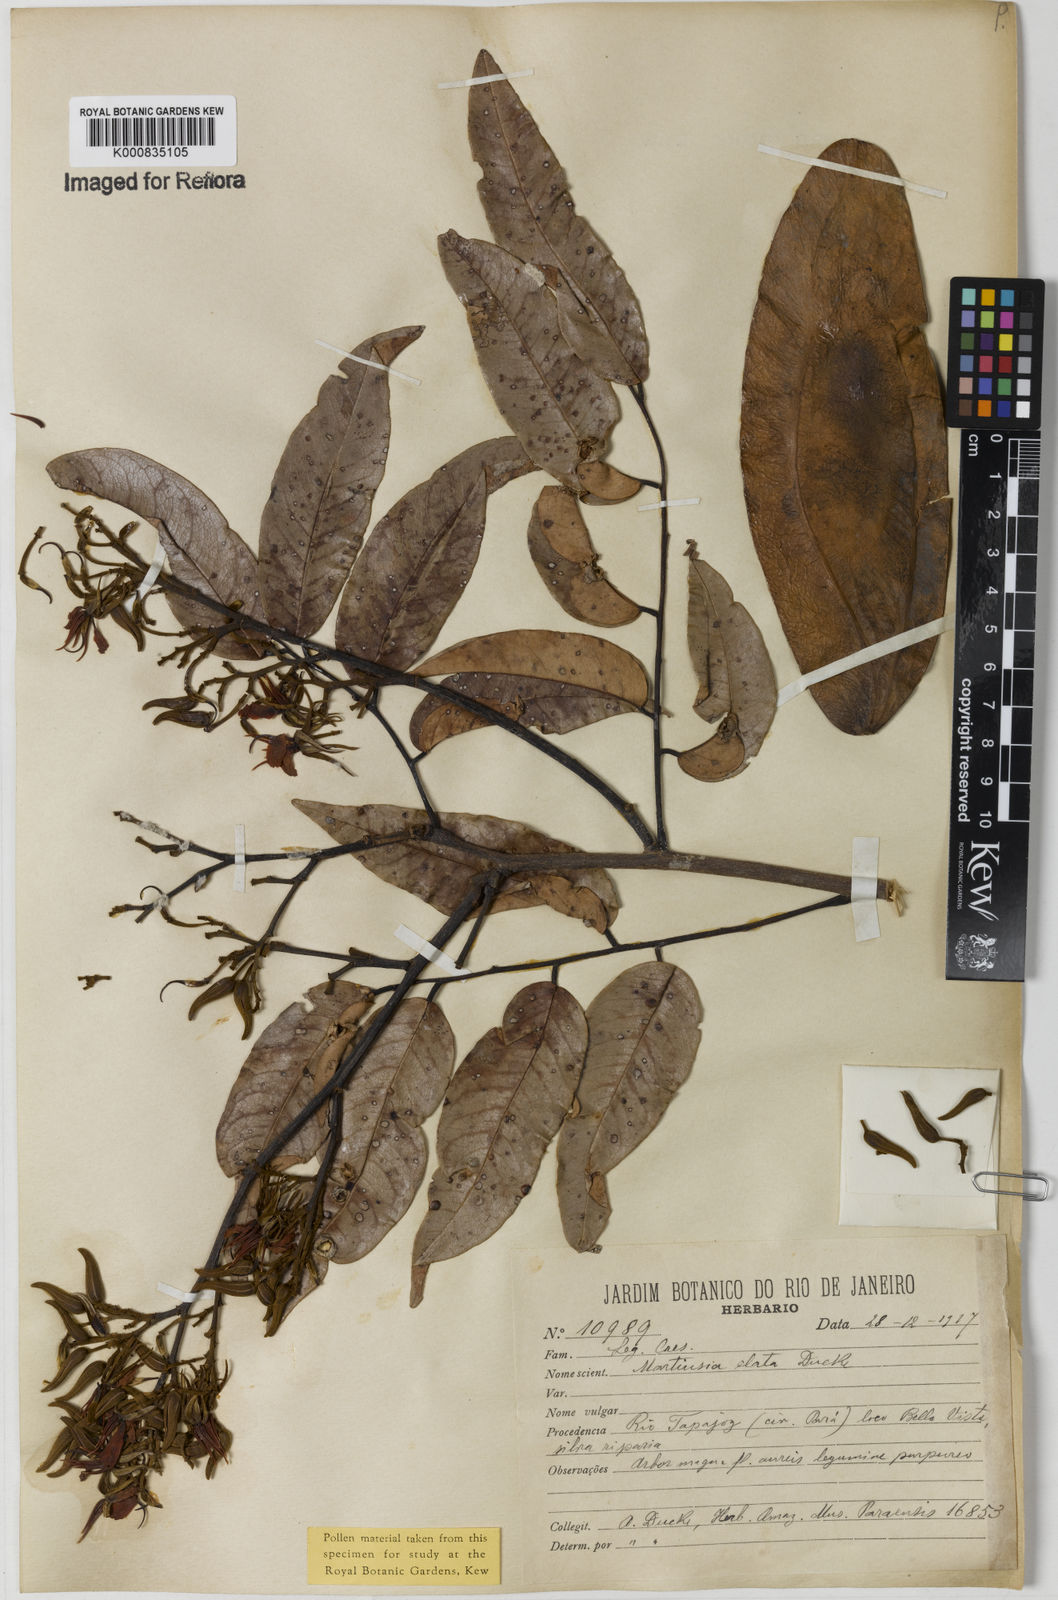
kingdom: Plantae
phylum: Tracheophyta
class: Magnoliopsida
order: Fabales
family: Fabaceae
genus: Martiodendron
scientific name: Martiodendron elatum
